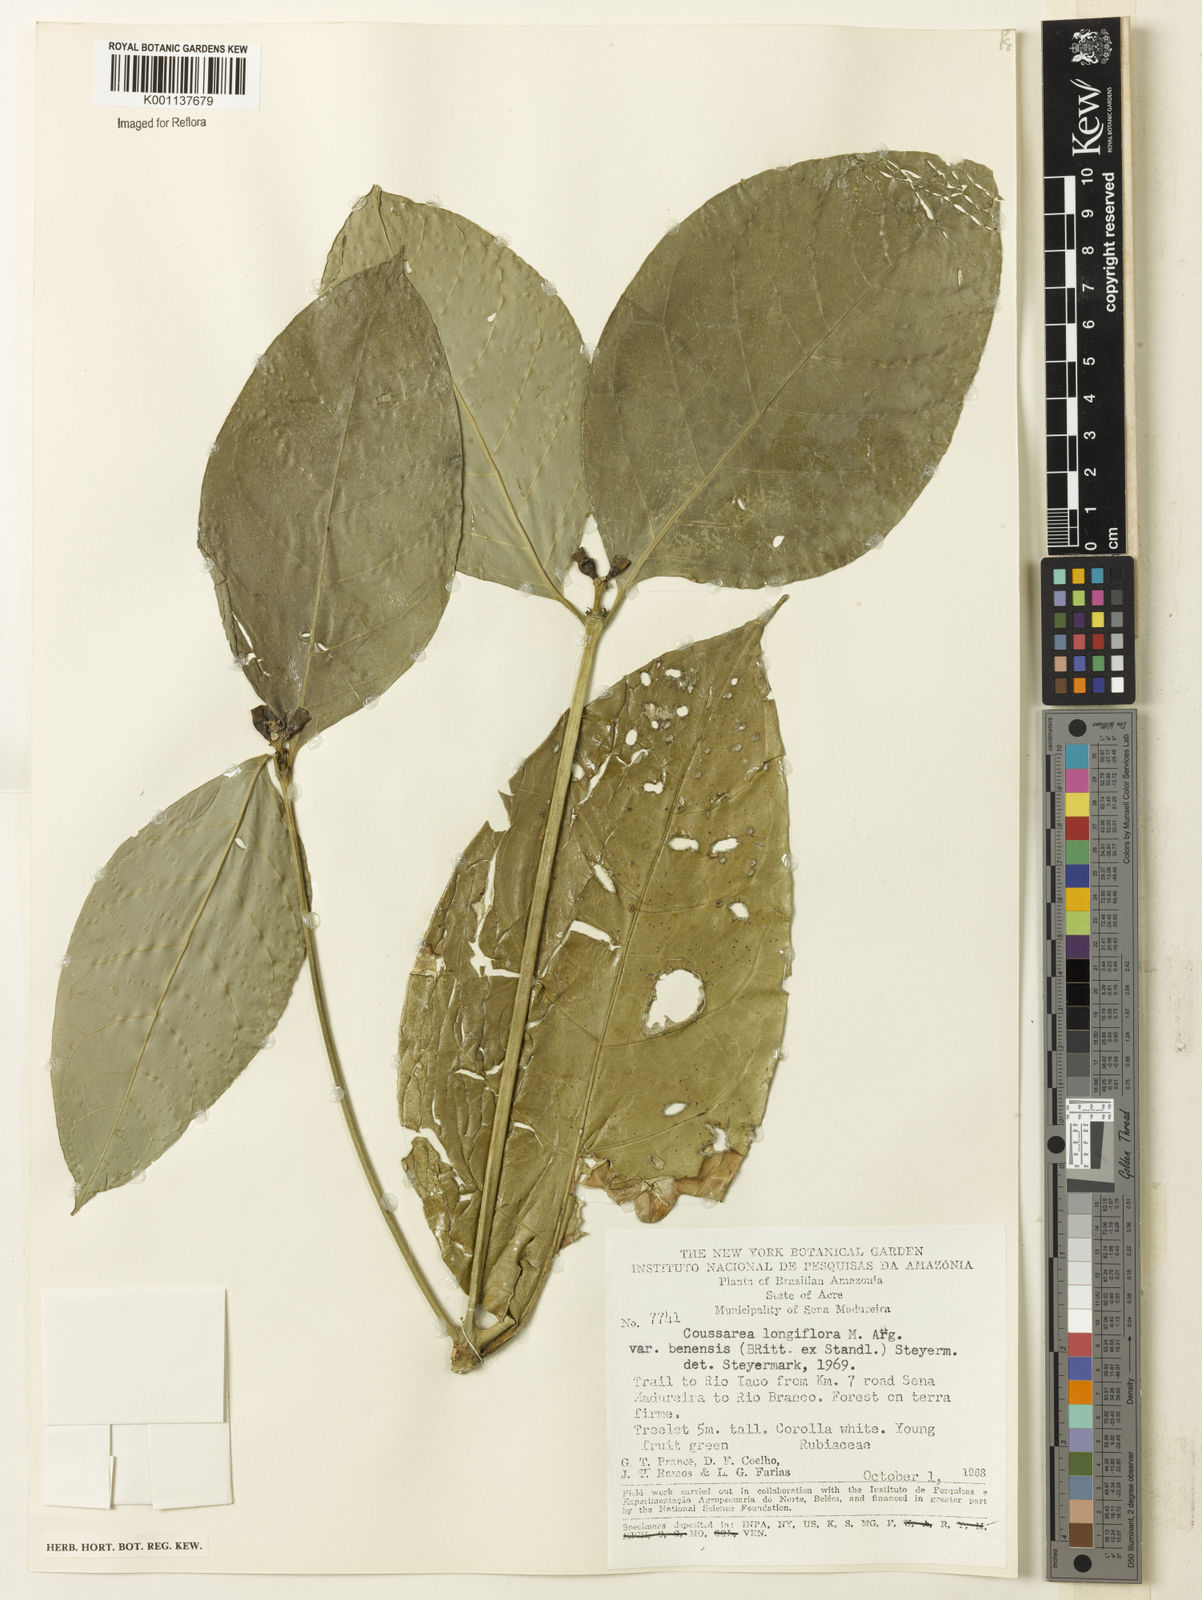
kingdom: Plantae
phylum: Tracheophyta
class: Magnoliopsida
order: Gentianales
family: Rubiaceae
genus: Coussarea
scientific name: Coussarea
